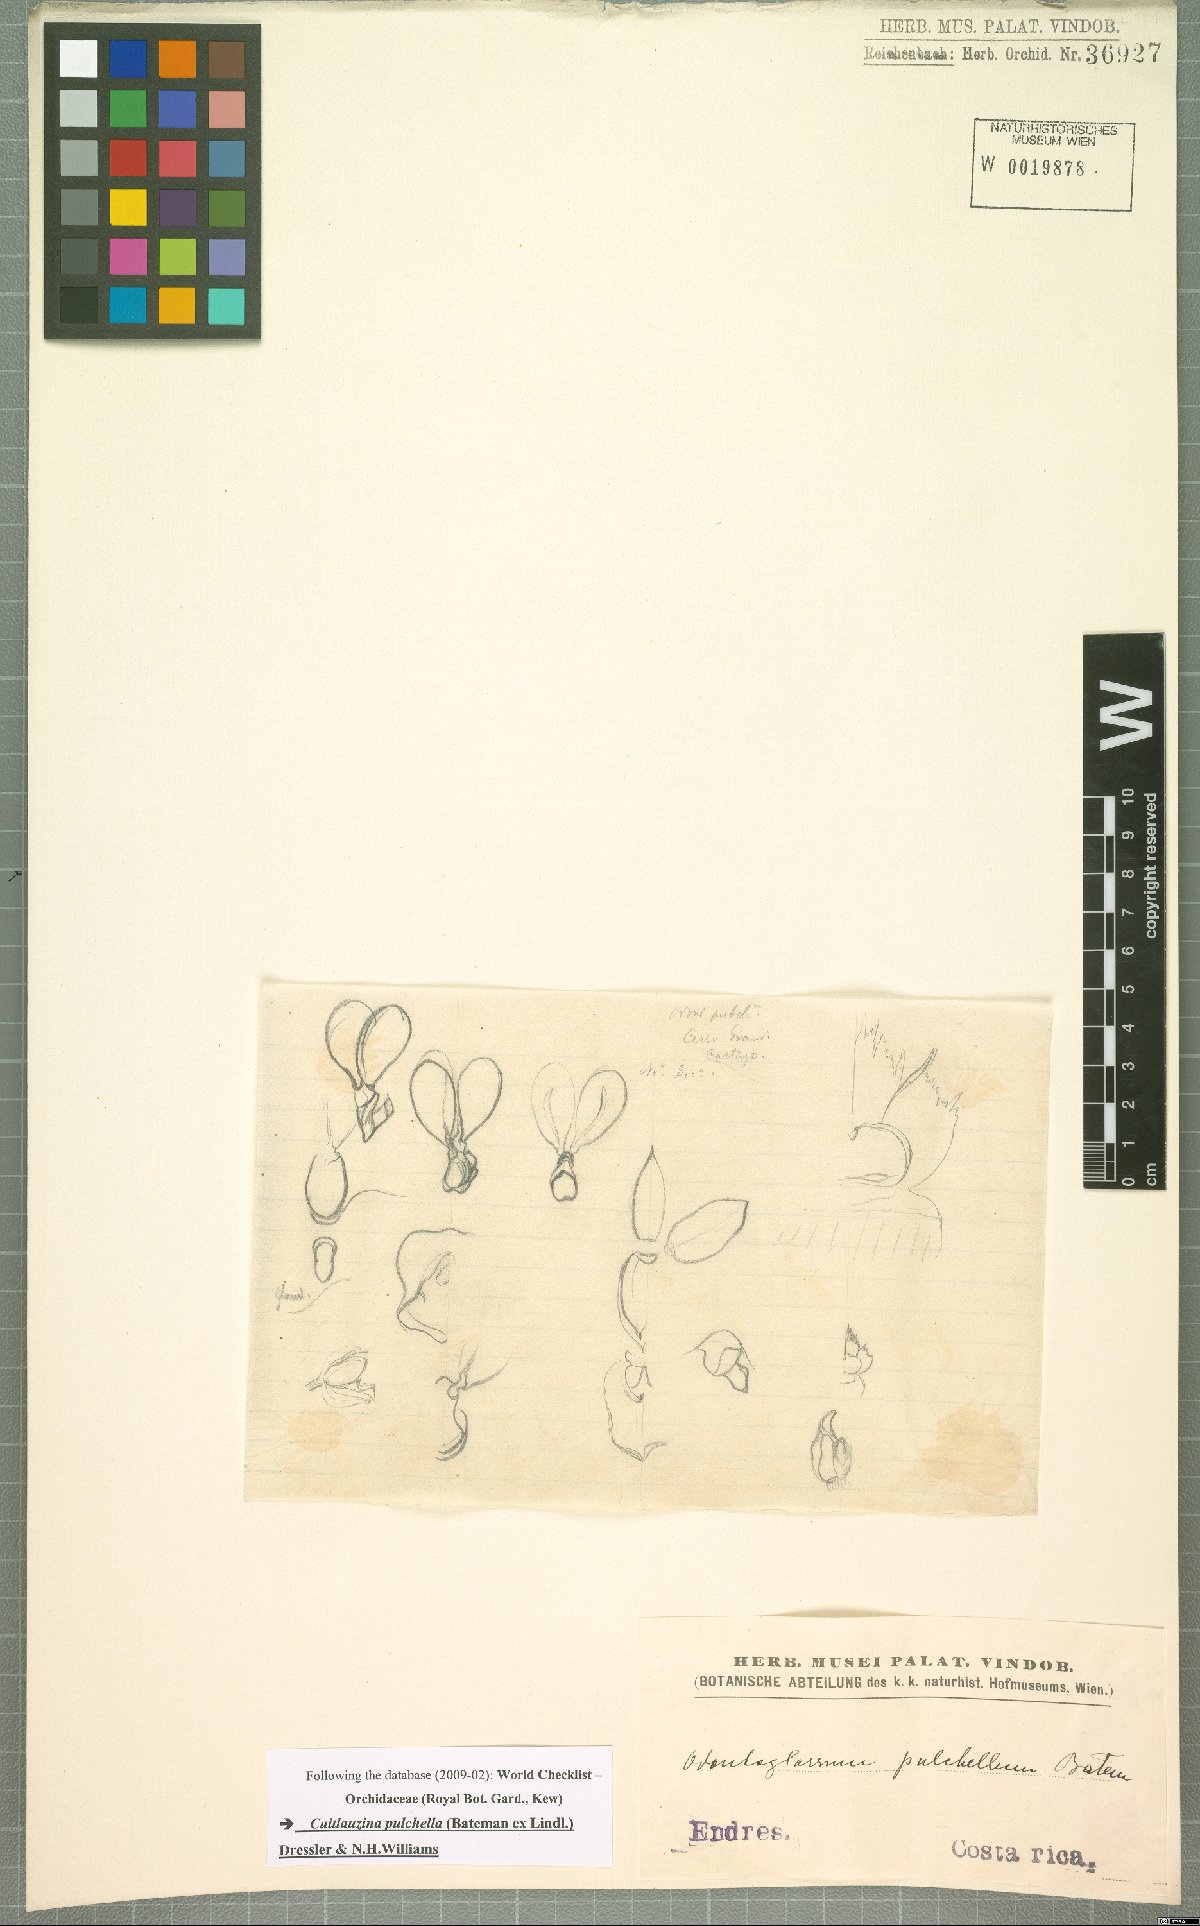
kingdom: Plantae
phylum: Tracheophyta
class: Liliopsida
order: Asparagales
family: Orchidaceae
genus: Cuitlauzina
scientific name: Cuitlauzina pulchella
